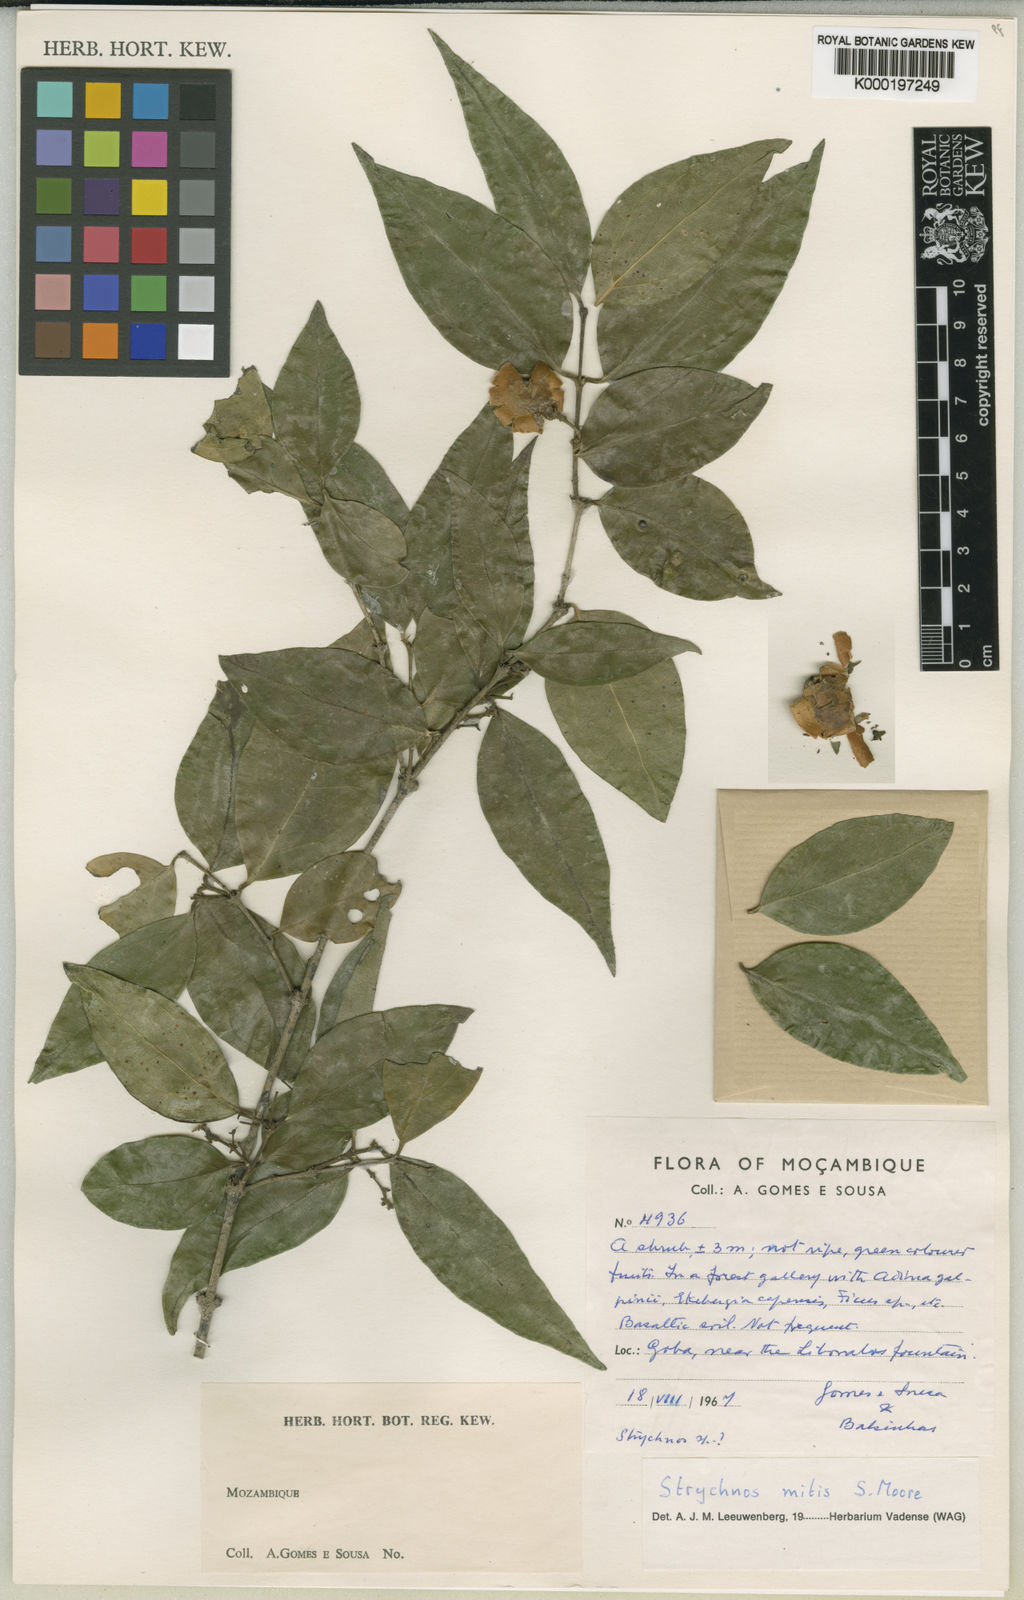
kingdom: Plantae
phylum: Tracheophyta
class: Magnoliopsida
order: Gentianales
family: Loganiaceae
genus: Strychnos
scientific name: Strychnos mitis
